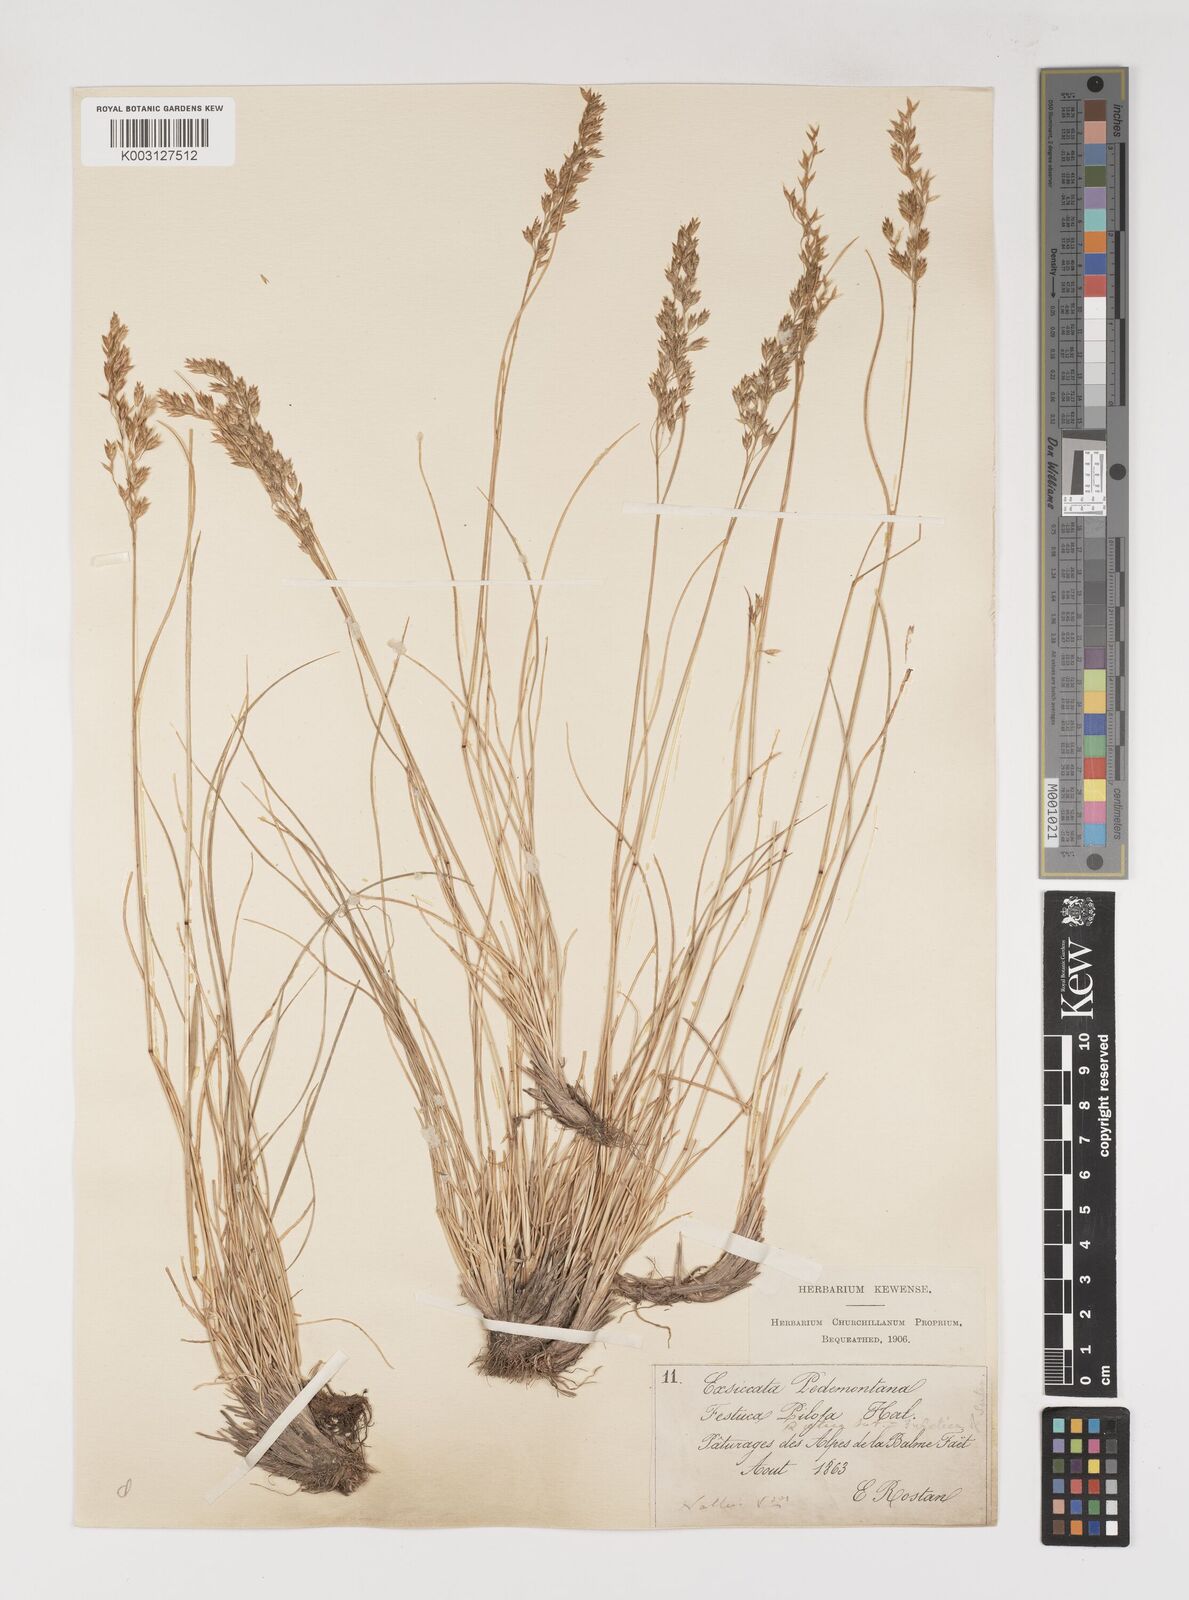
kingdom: Plantae
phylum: Tracheophyta
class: Liliopsida
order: Poales
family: Poaceae
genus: Bellardiochloa
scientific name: Bellardiochloa variegata
